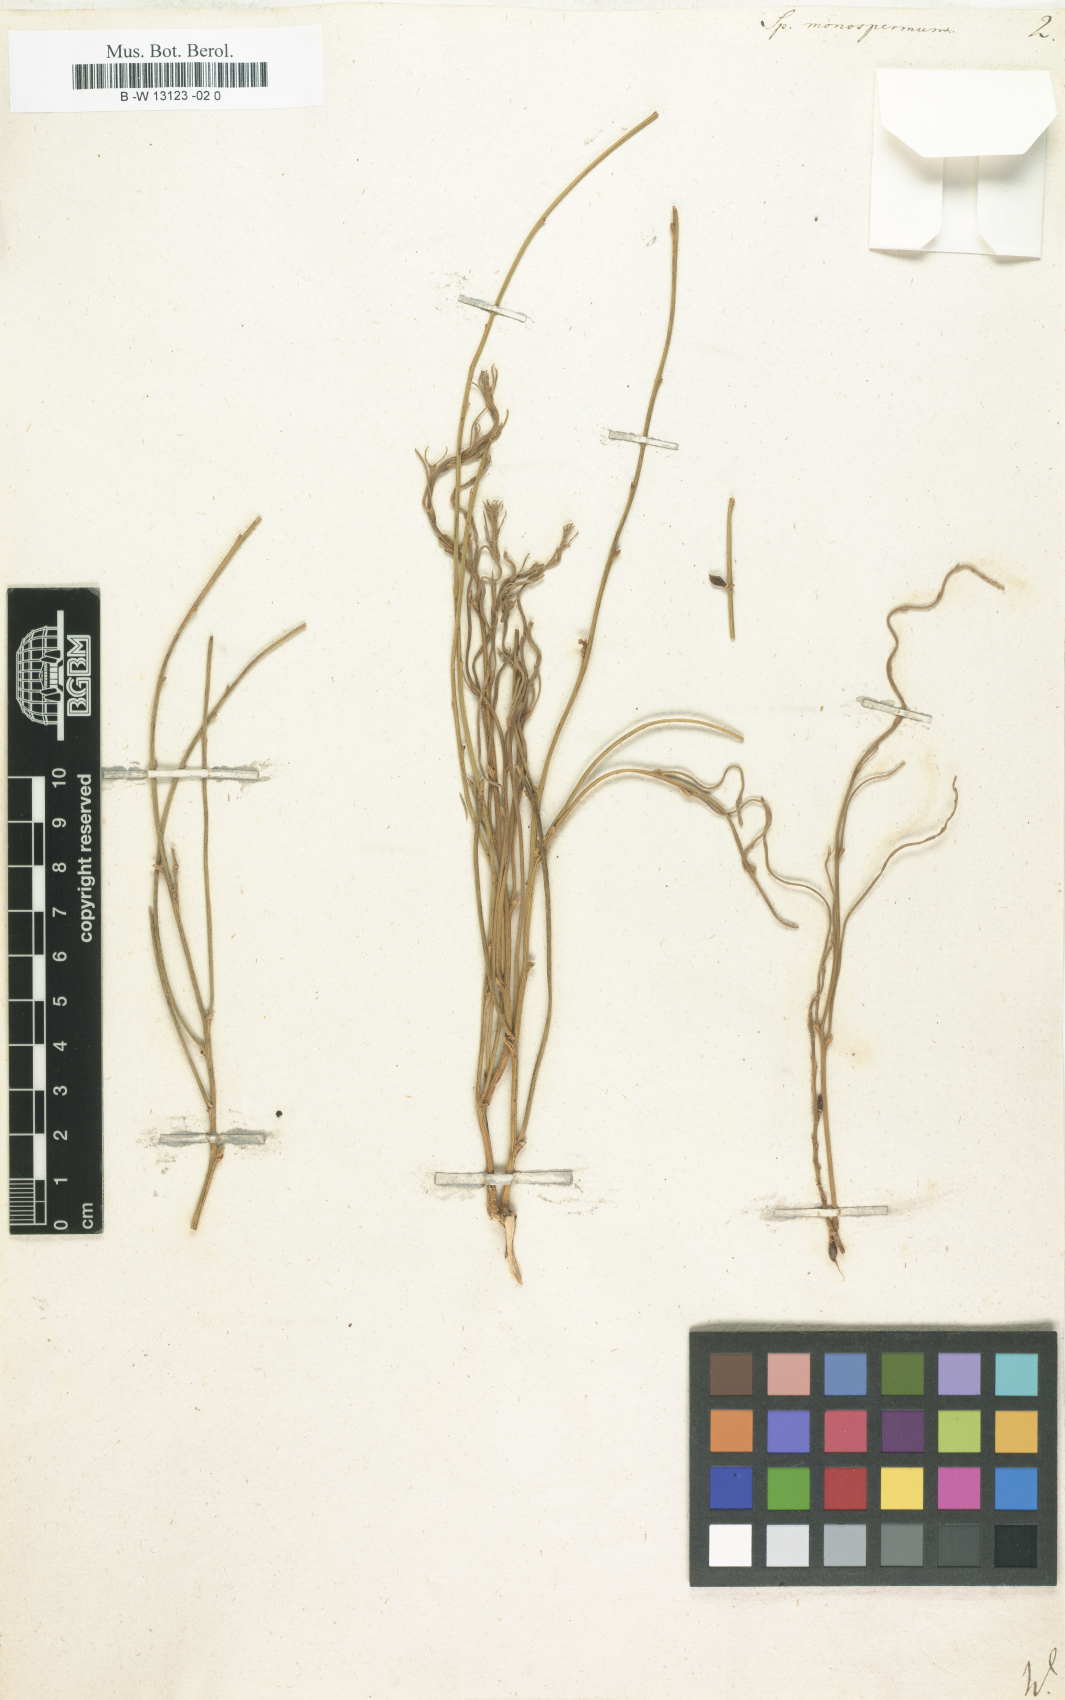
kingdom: Plantae
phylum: Tracheophyta
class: Magnoliopsida
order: Fabales
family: Fabaceae
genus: Retama
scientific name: Retama
